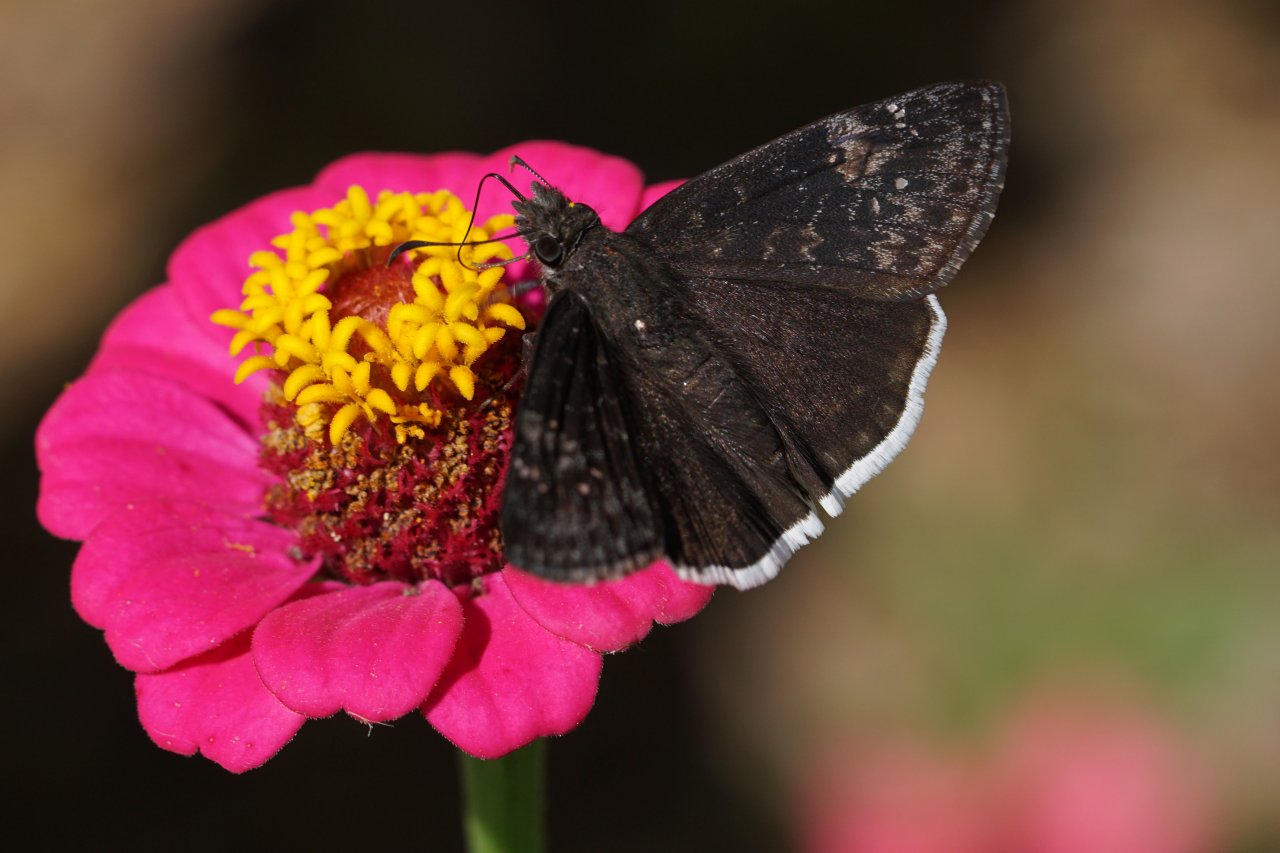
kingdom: Animalia
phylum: Arthropoda
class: Insecta
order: Lepidoptera
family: Hesperiidae
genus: Erynnis
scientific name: Erynnis funeralis
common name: Funereal Duskywing
